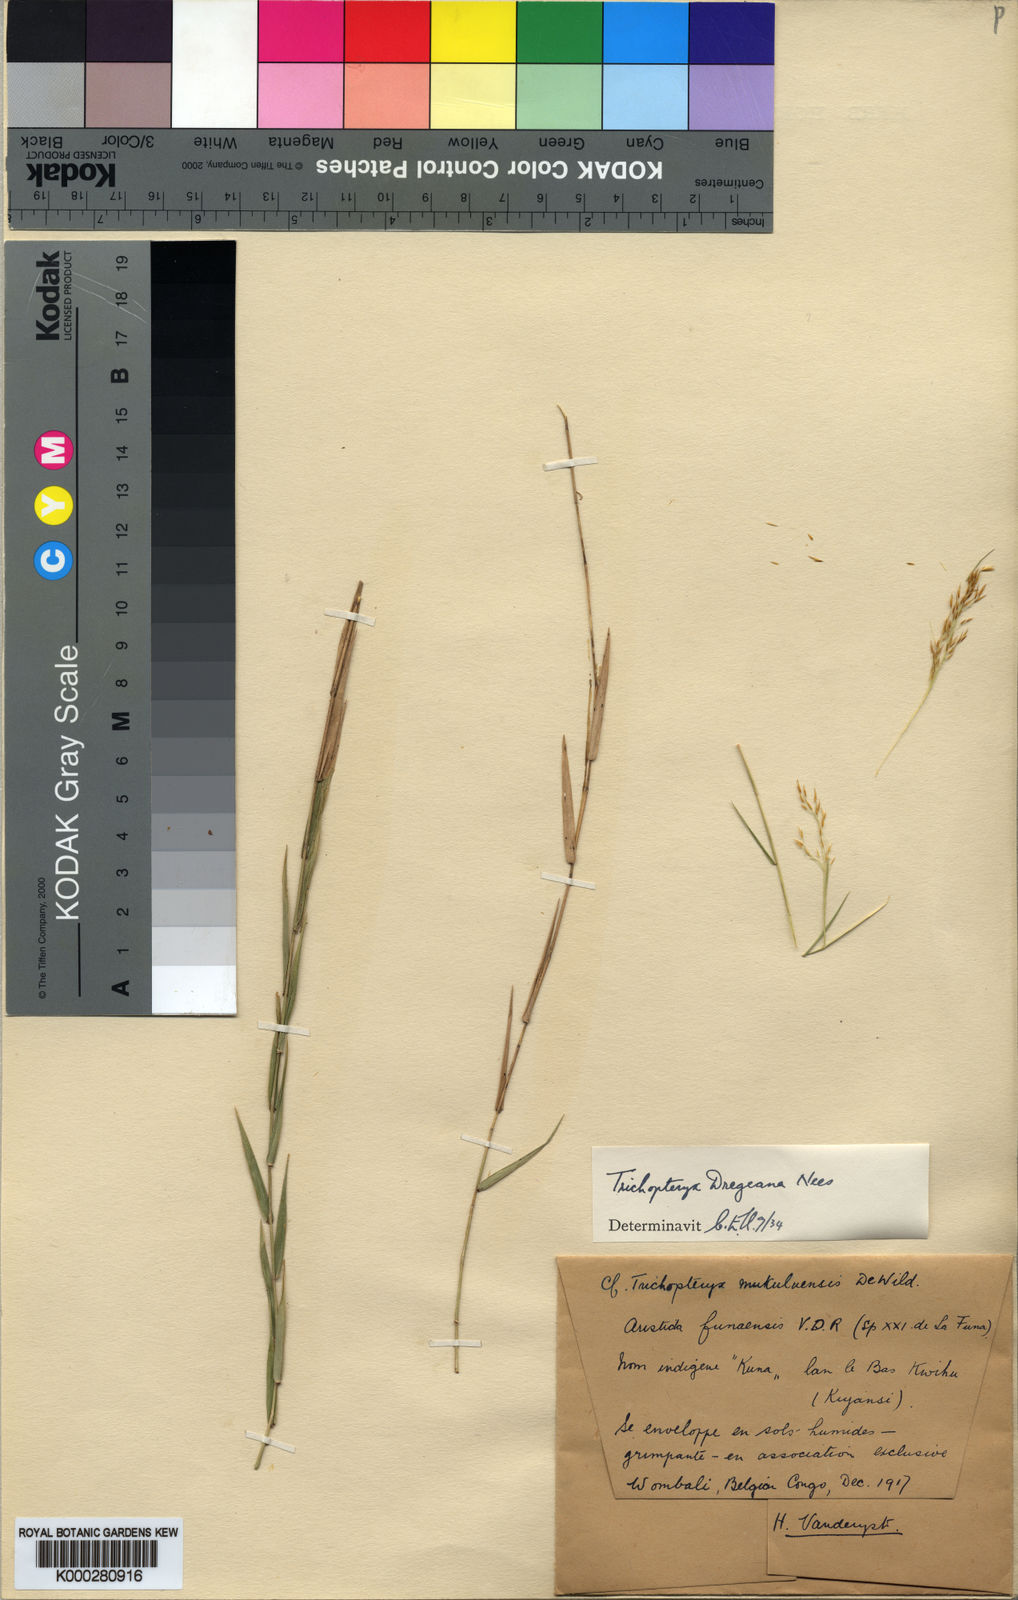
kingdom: Plantae
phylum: Tracheophyta
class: Liliopsida
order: Poales
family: Poaceae
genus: Trichopteryx
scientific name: Trichopteryx dregeana
